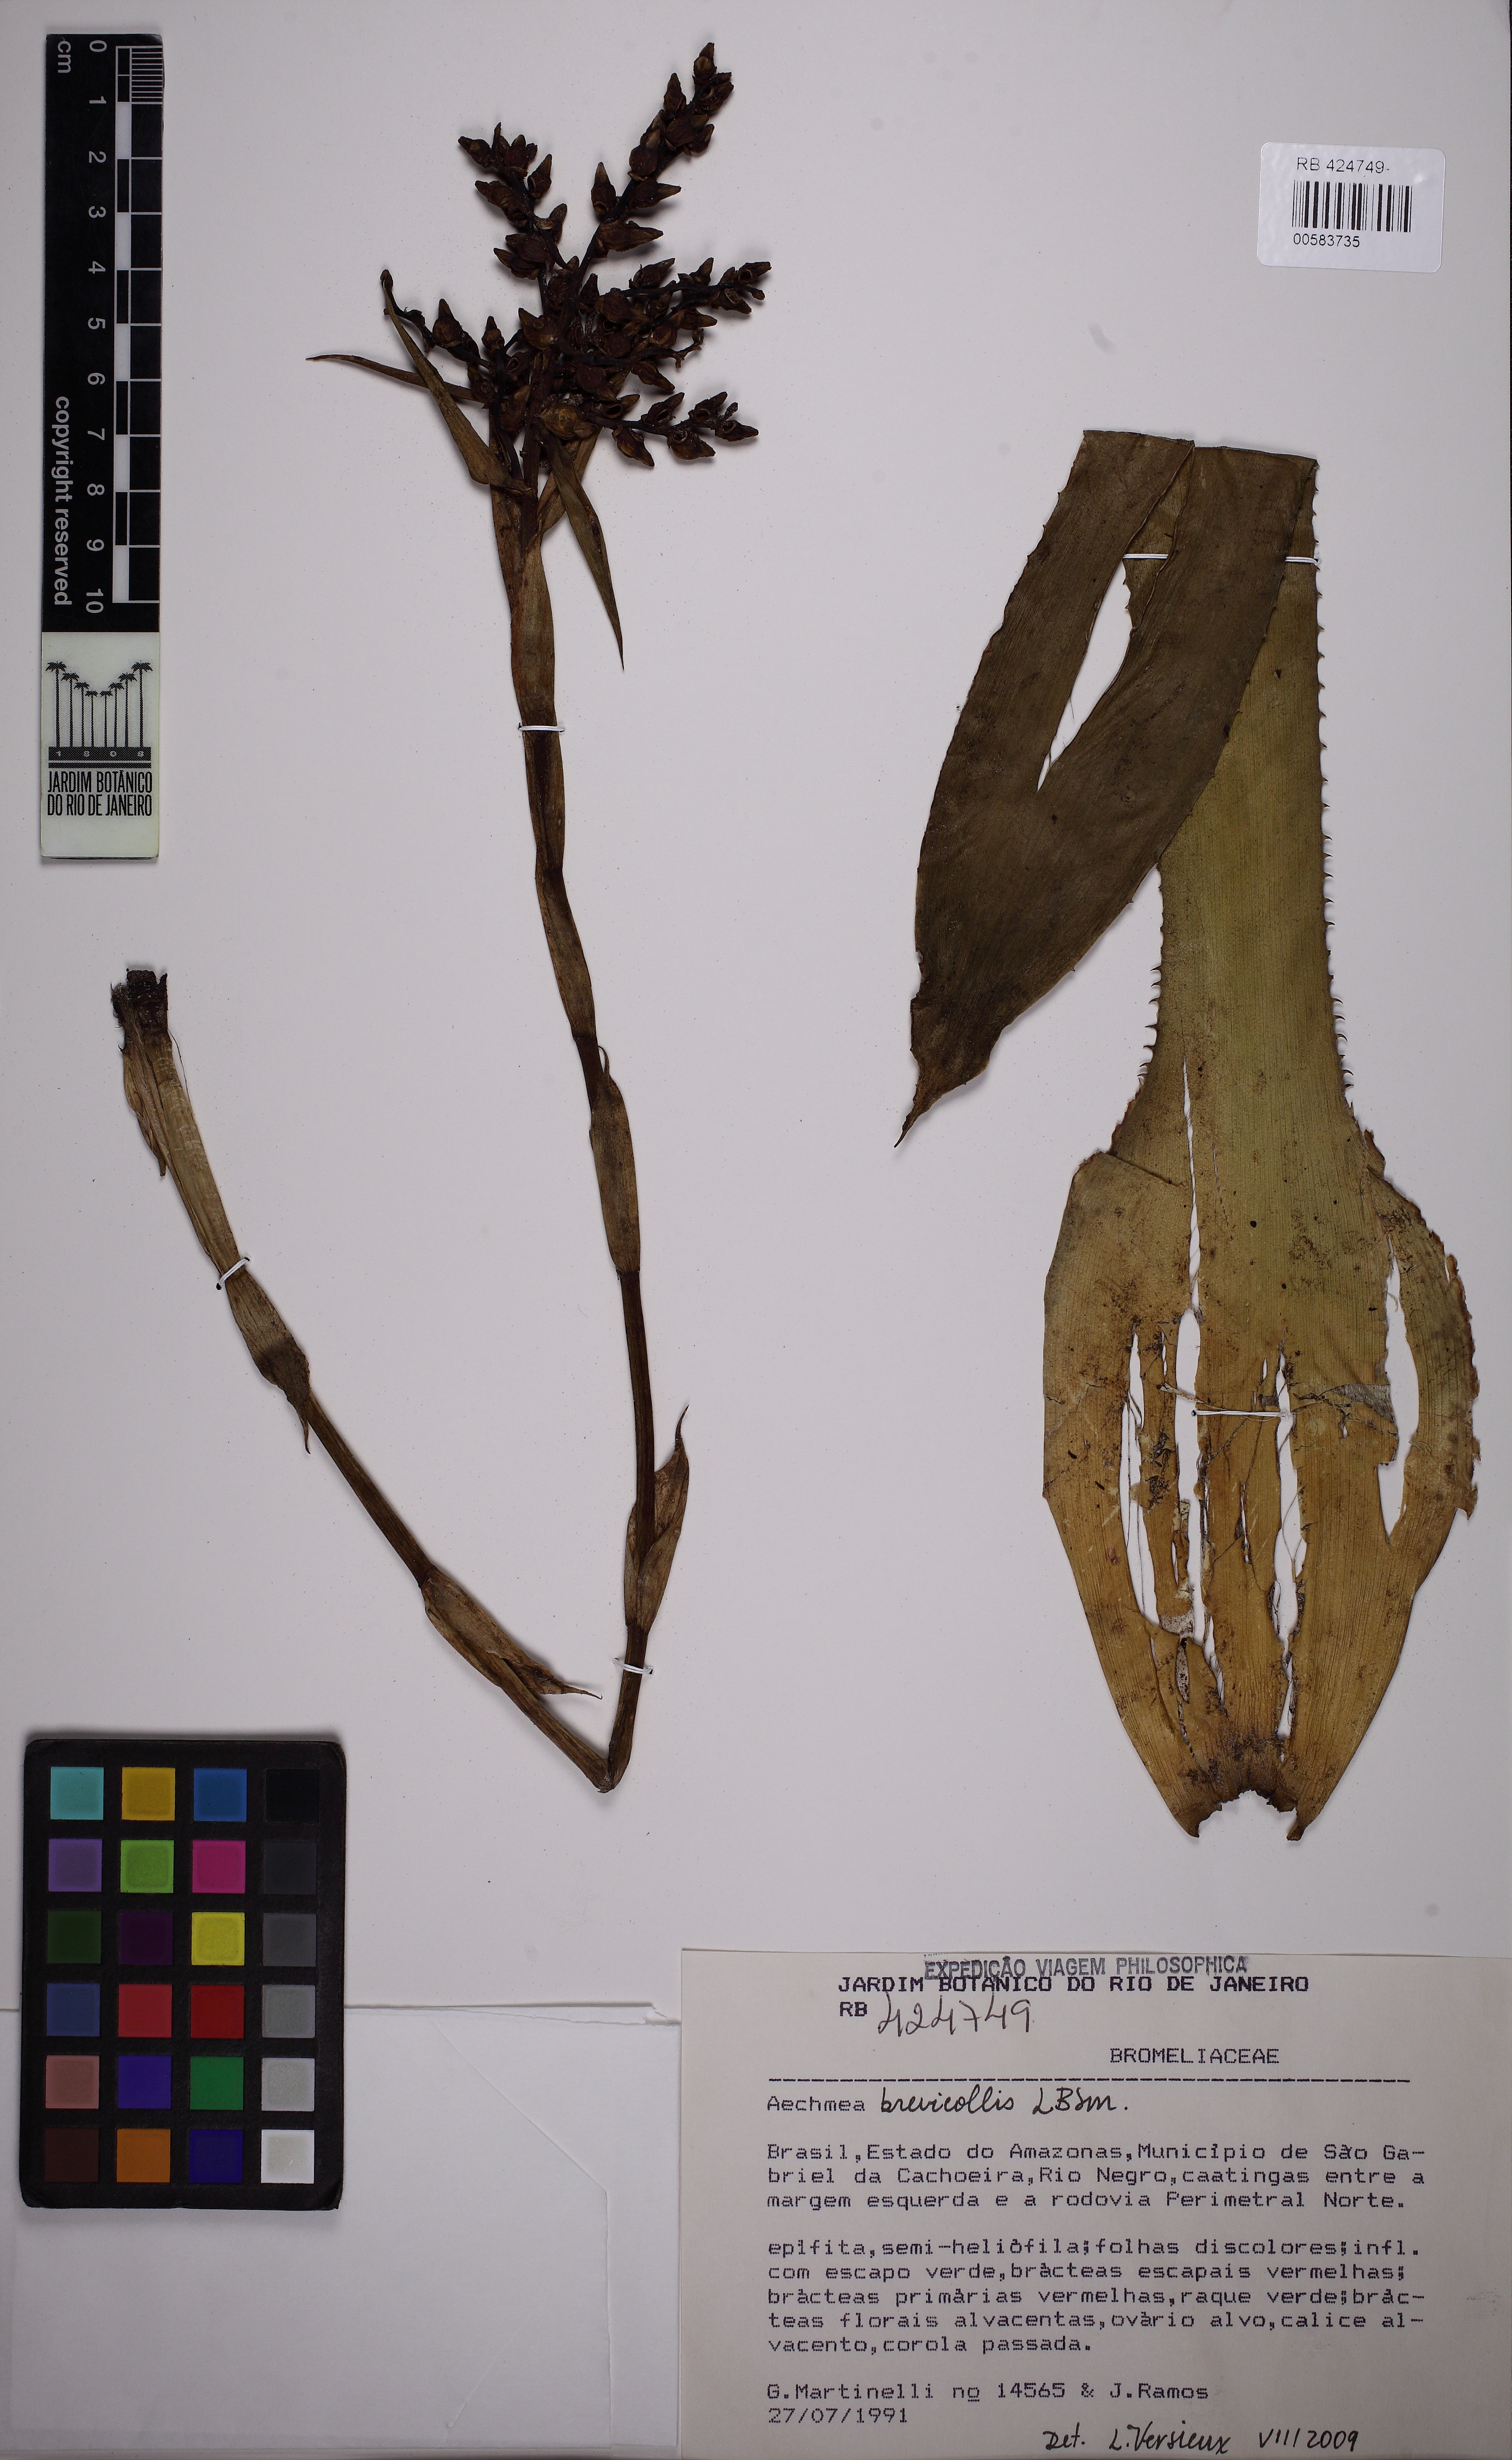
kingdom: Plantae
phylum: Tracheophyta
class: Liliopsida
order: Poales
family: Bromeliaceae
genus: Aechmea
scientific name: Aechmea brevicollis
